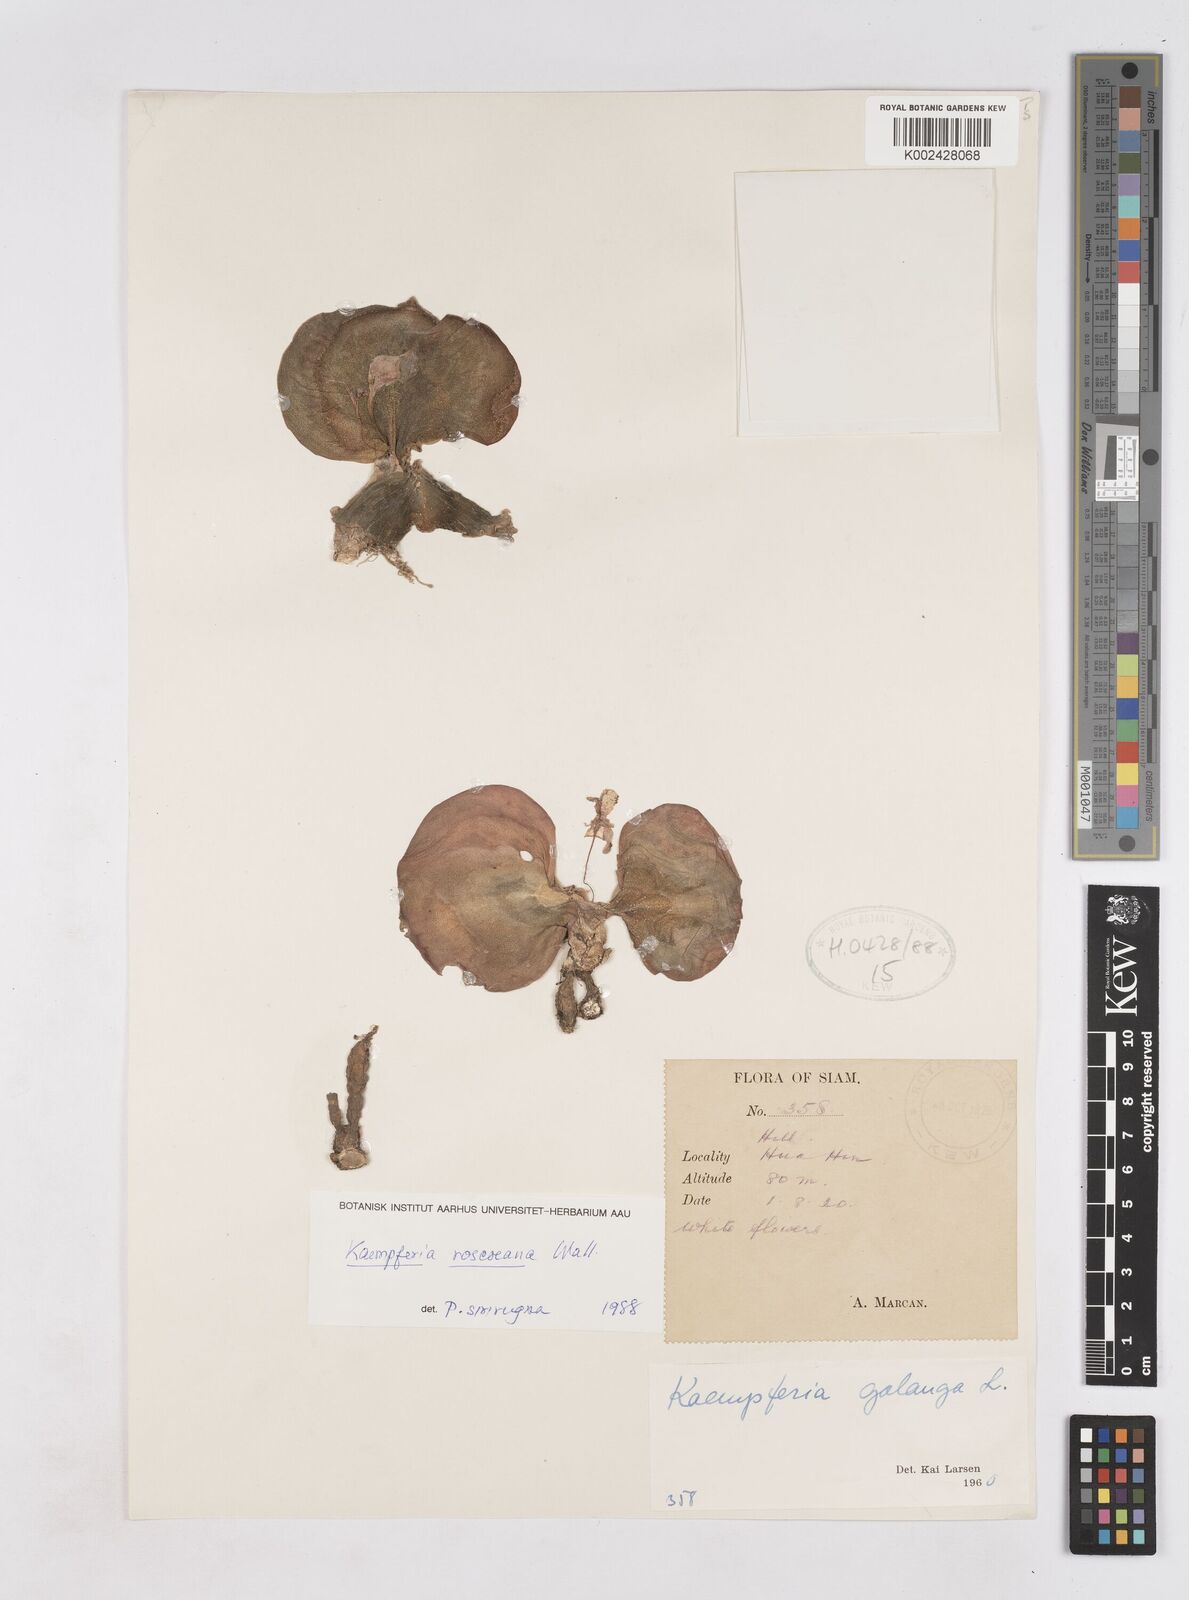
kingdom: Plantae
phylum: Tracheophyta
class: Liliopsida
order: Zingiberales
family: Zingiberaceae
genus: Kaempferia
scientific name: Kaempferia roscoeana
